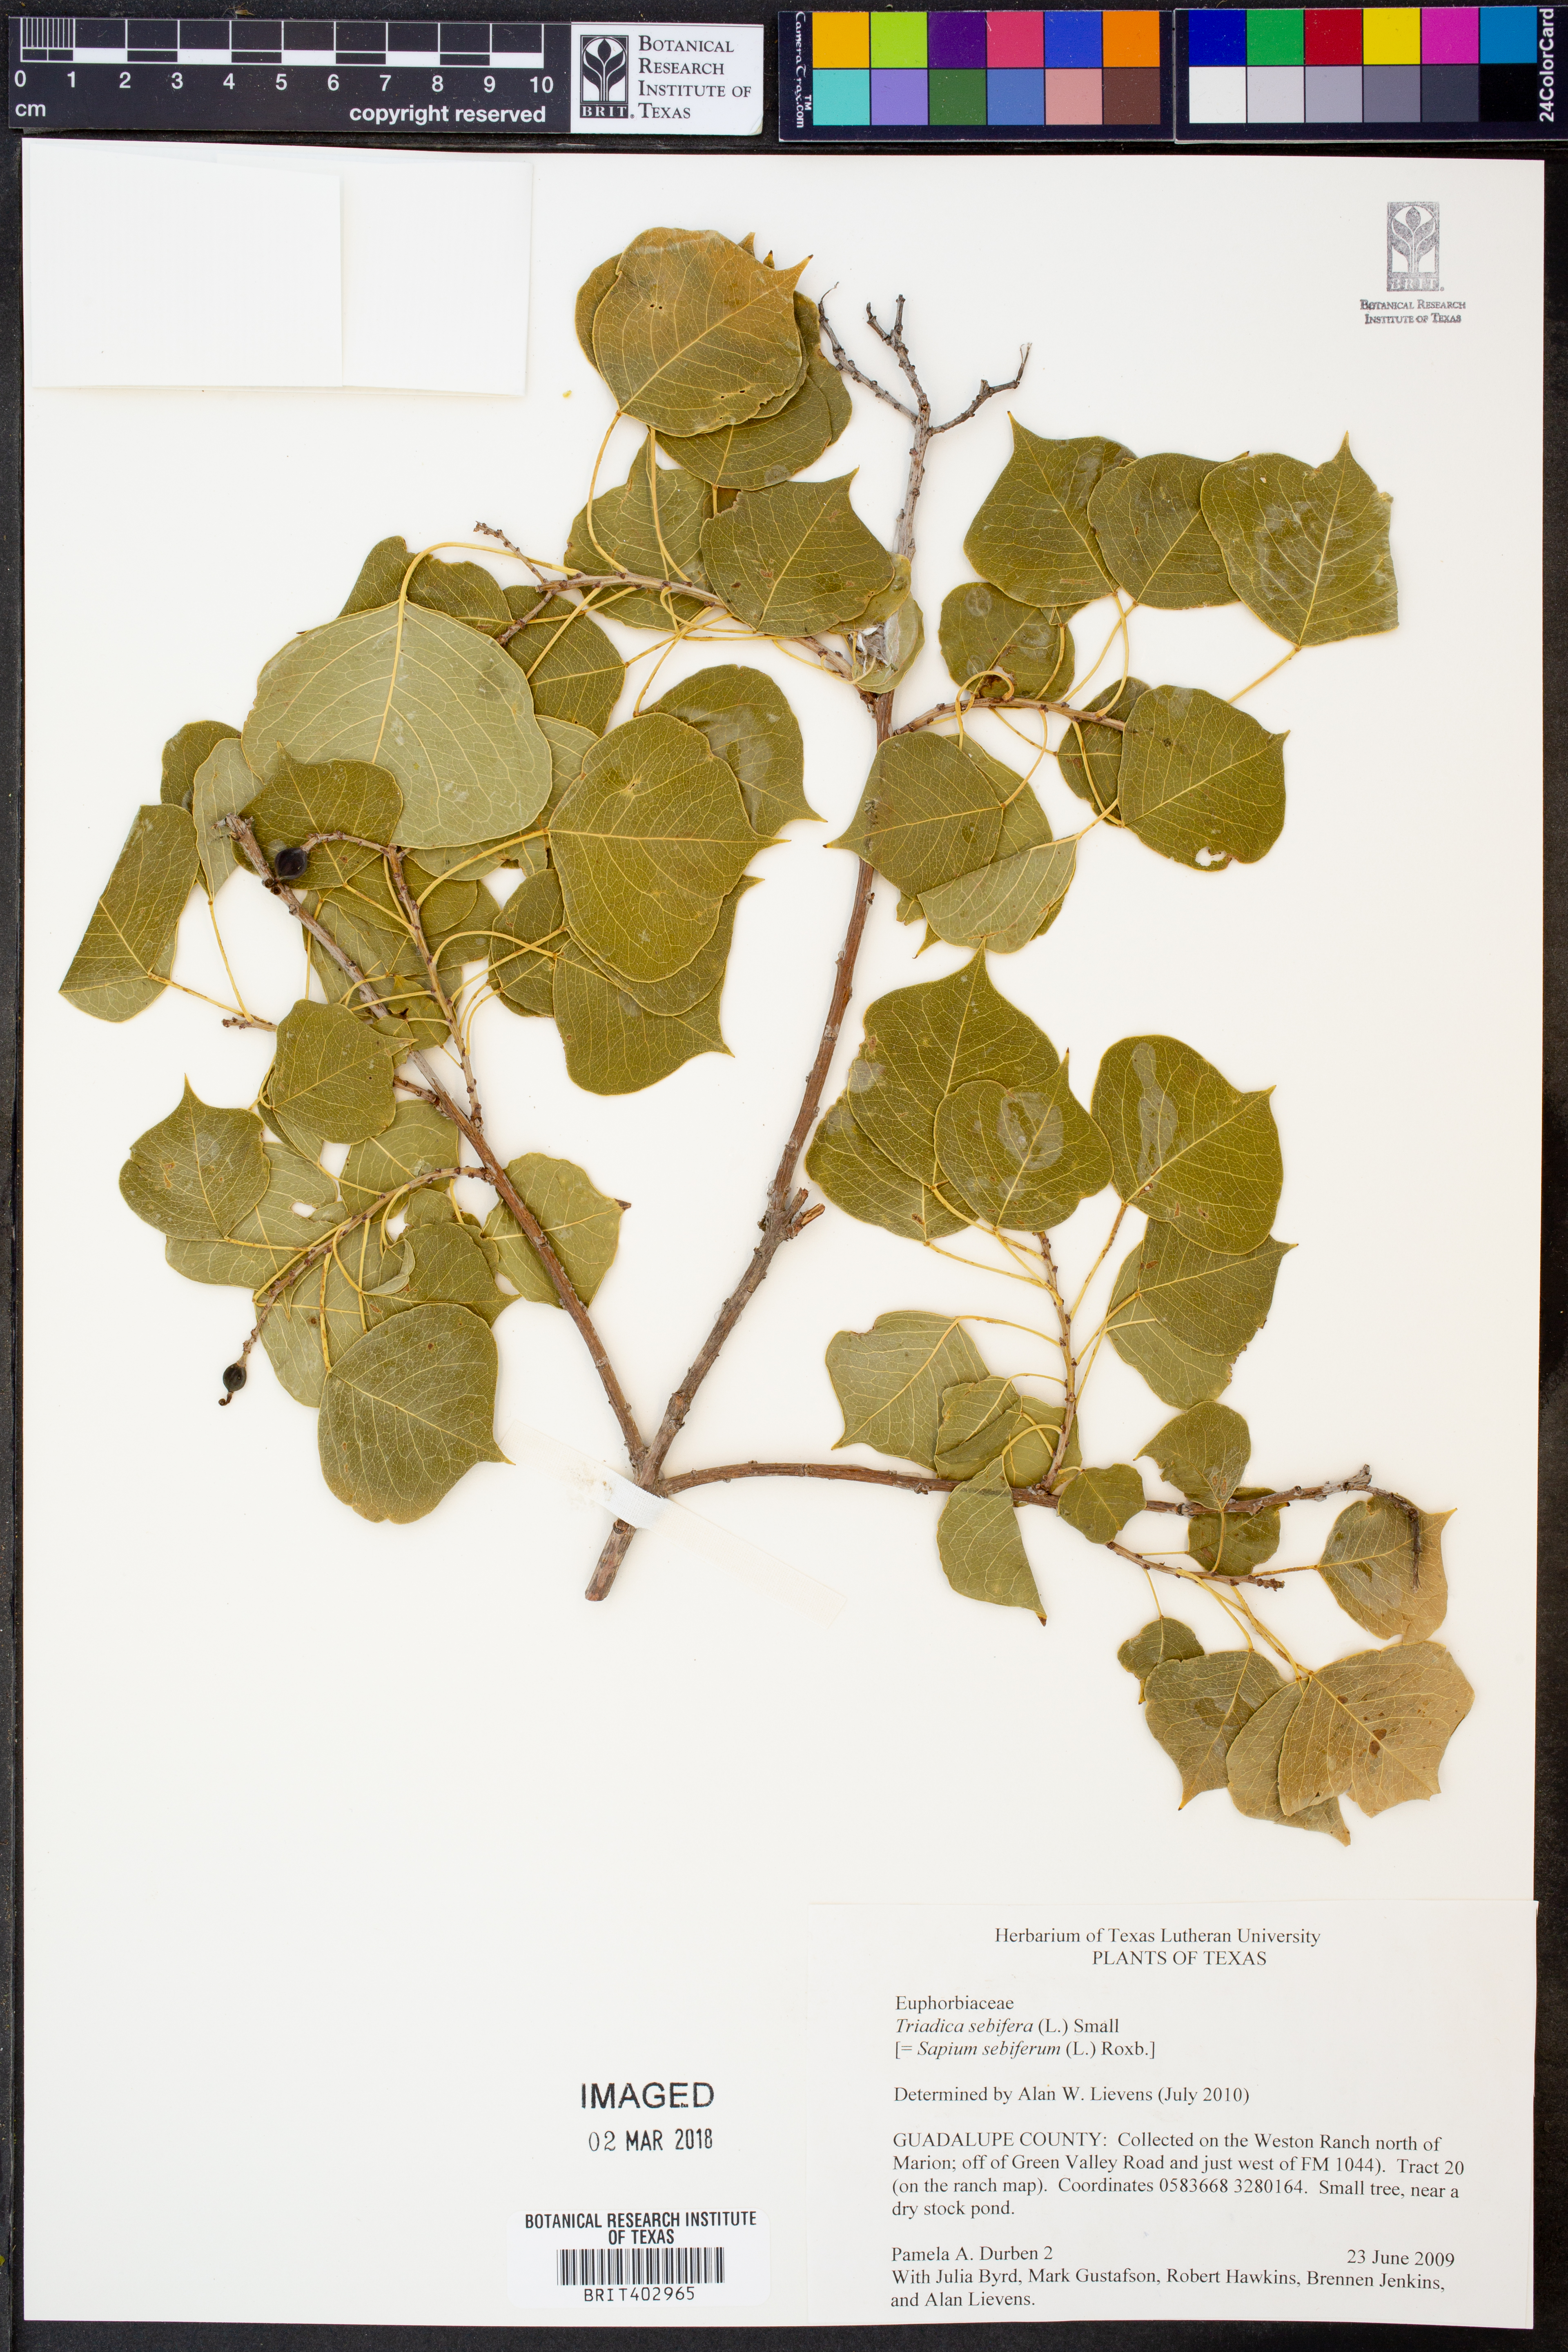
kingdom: Plantae
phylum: Tracheophyta
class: Magnoliopsida
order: Malpighiales
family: Euphorbiaceae
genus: Triadica
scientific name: Triadica sebifera
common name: Chinese tallow
